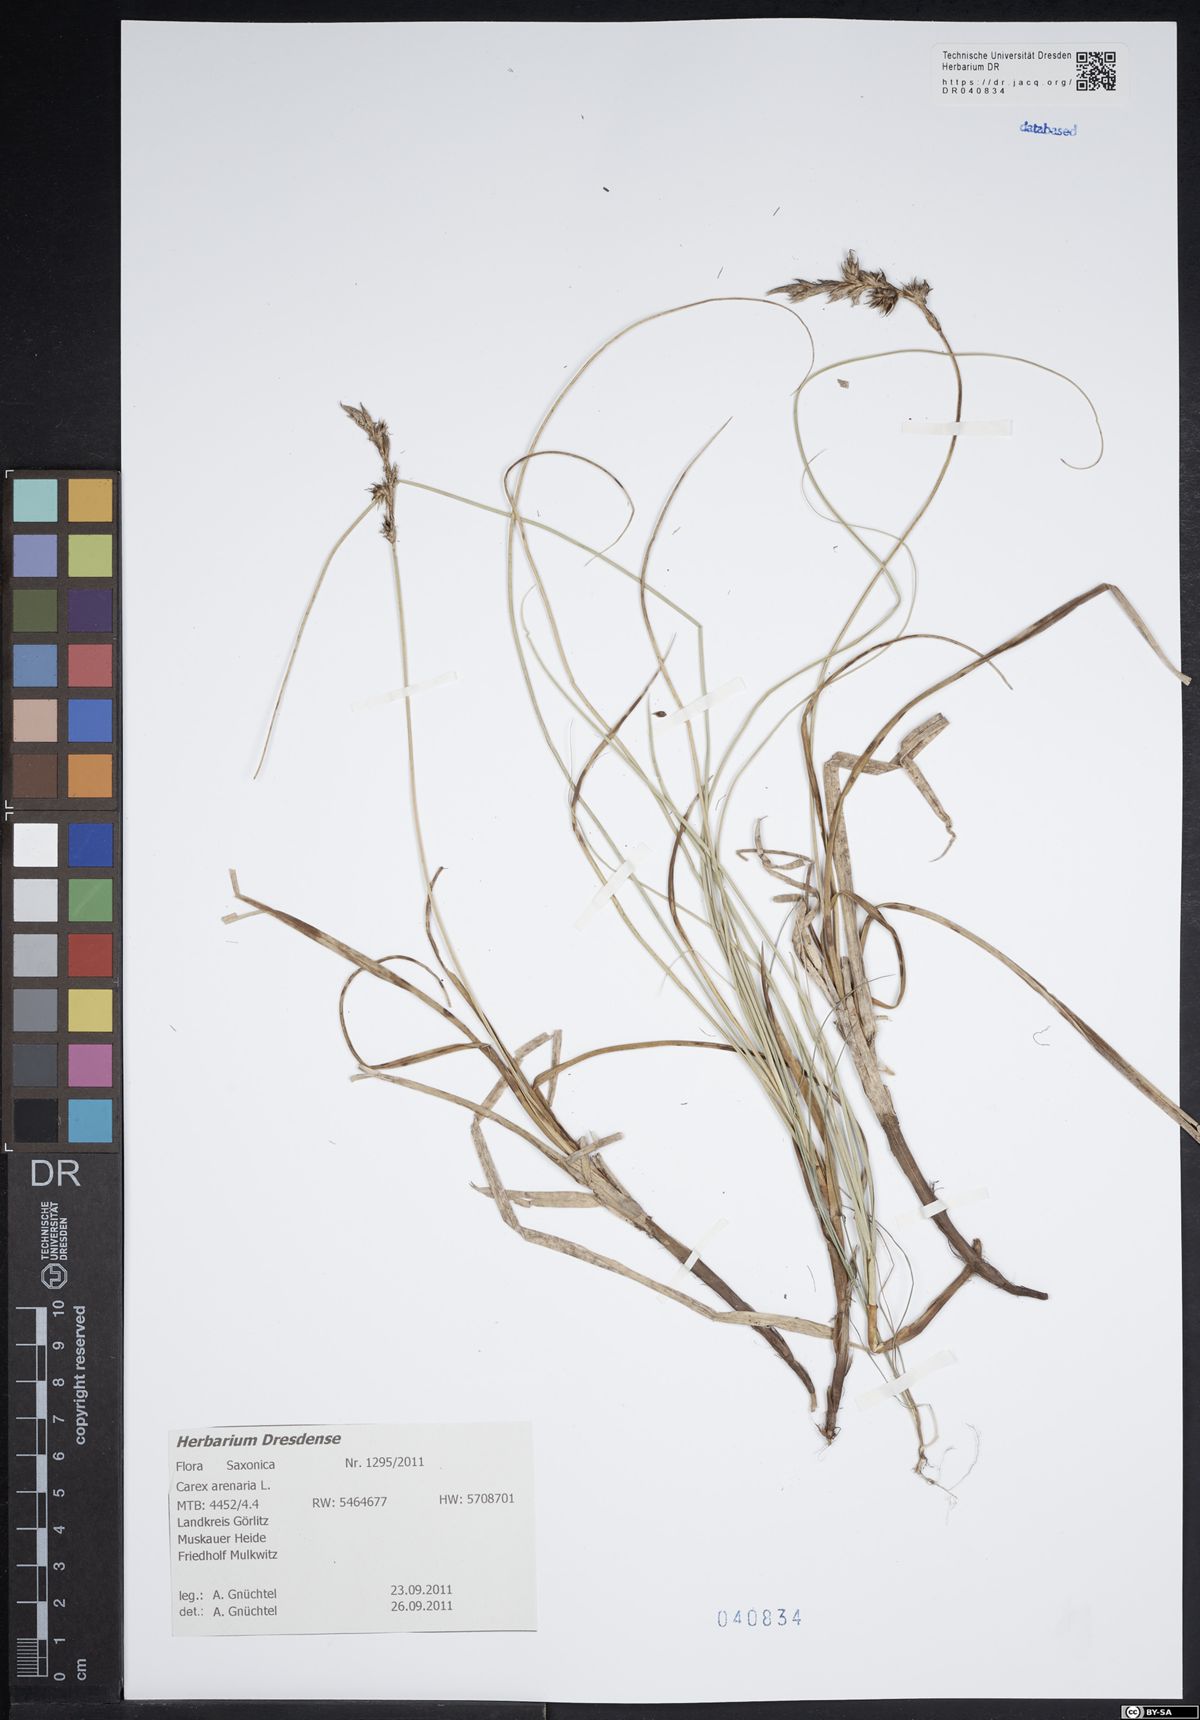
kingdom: Plantae
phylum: Tracheophyta
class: Liliopsida
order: Poales
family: Cyperaceae
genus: Carex
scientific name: Carex arenaria
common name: Sand sedge
